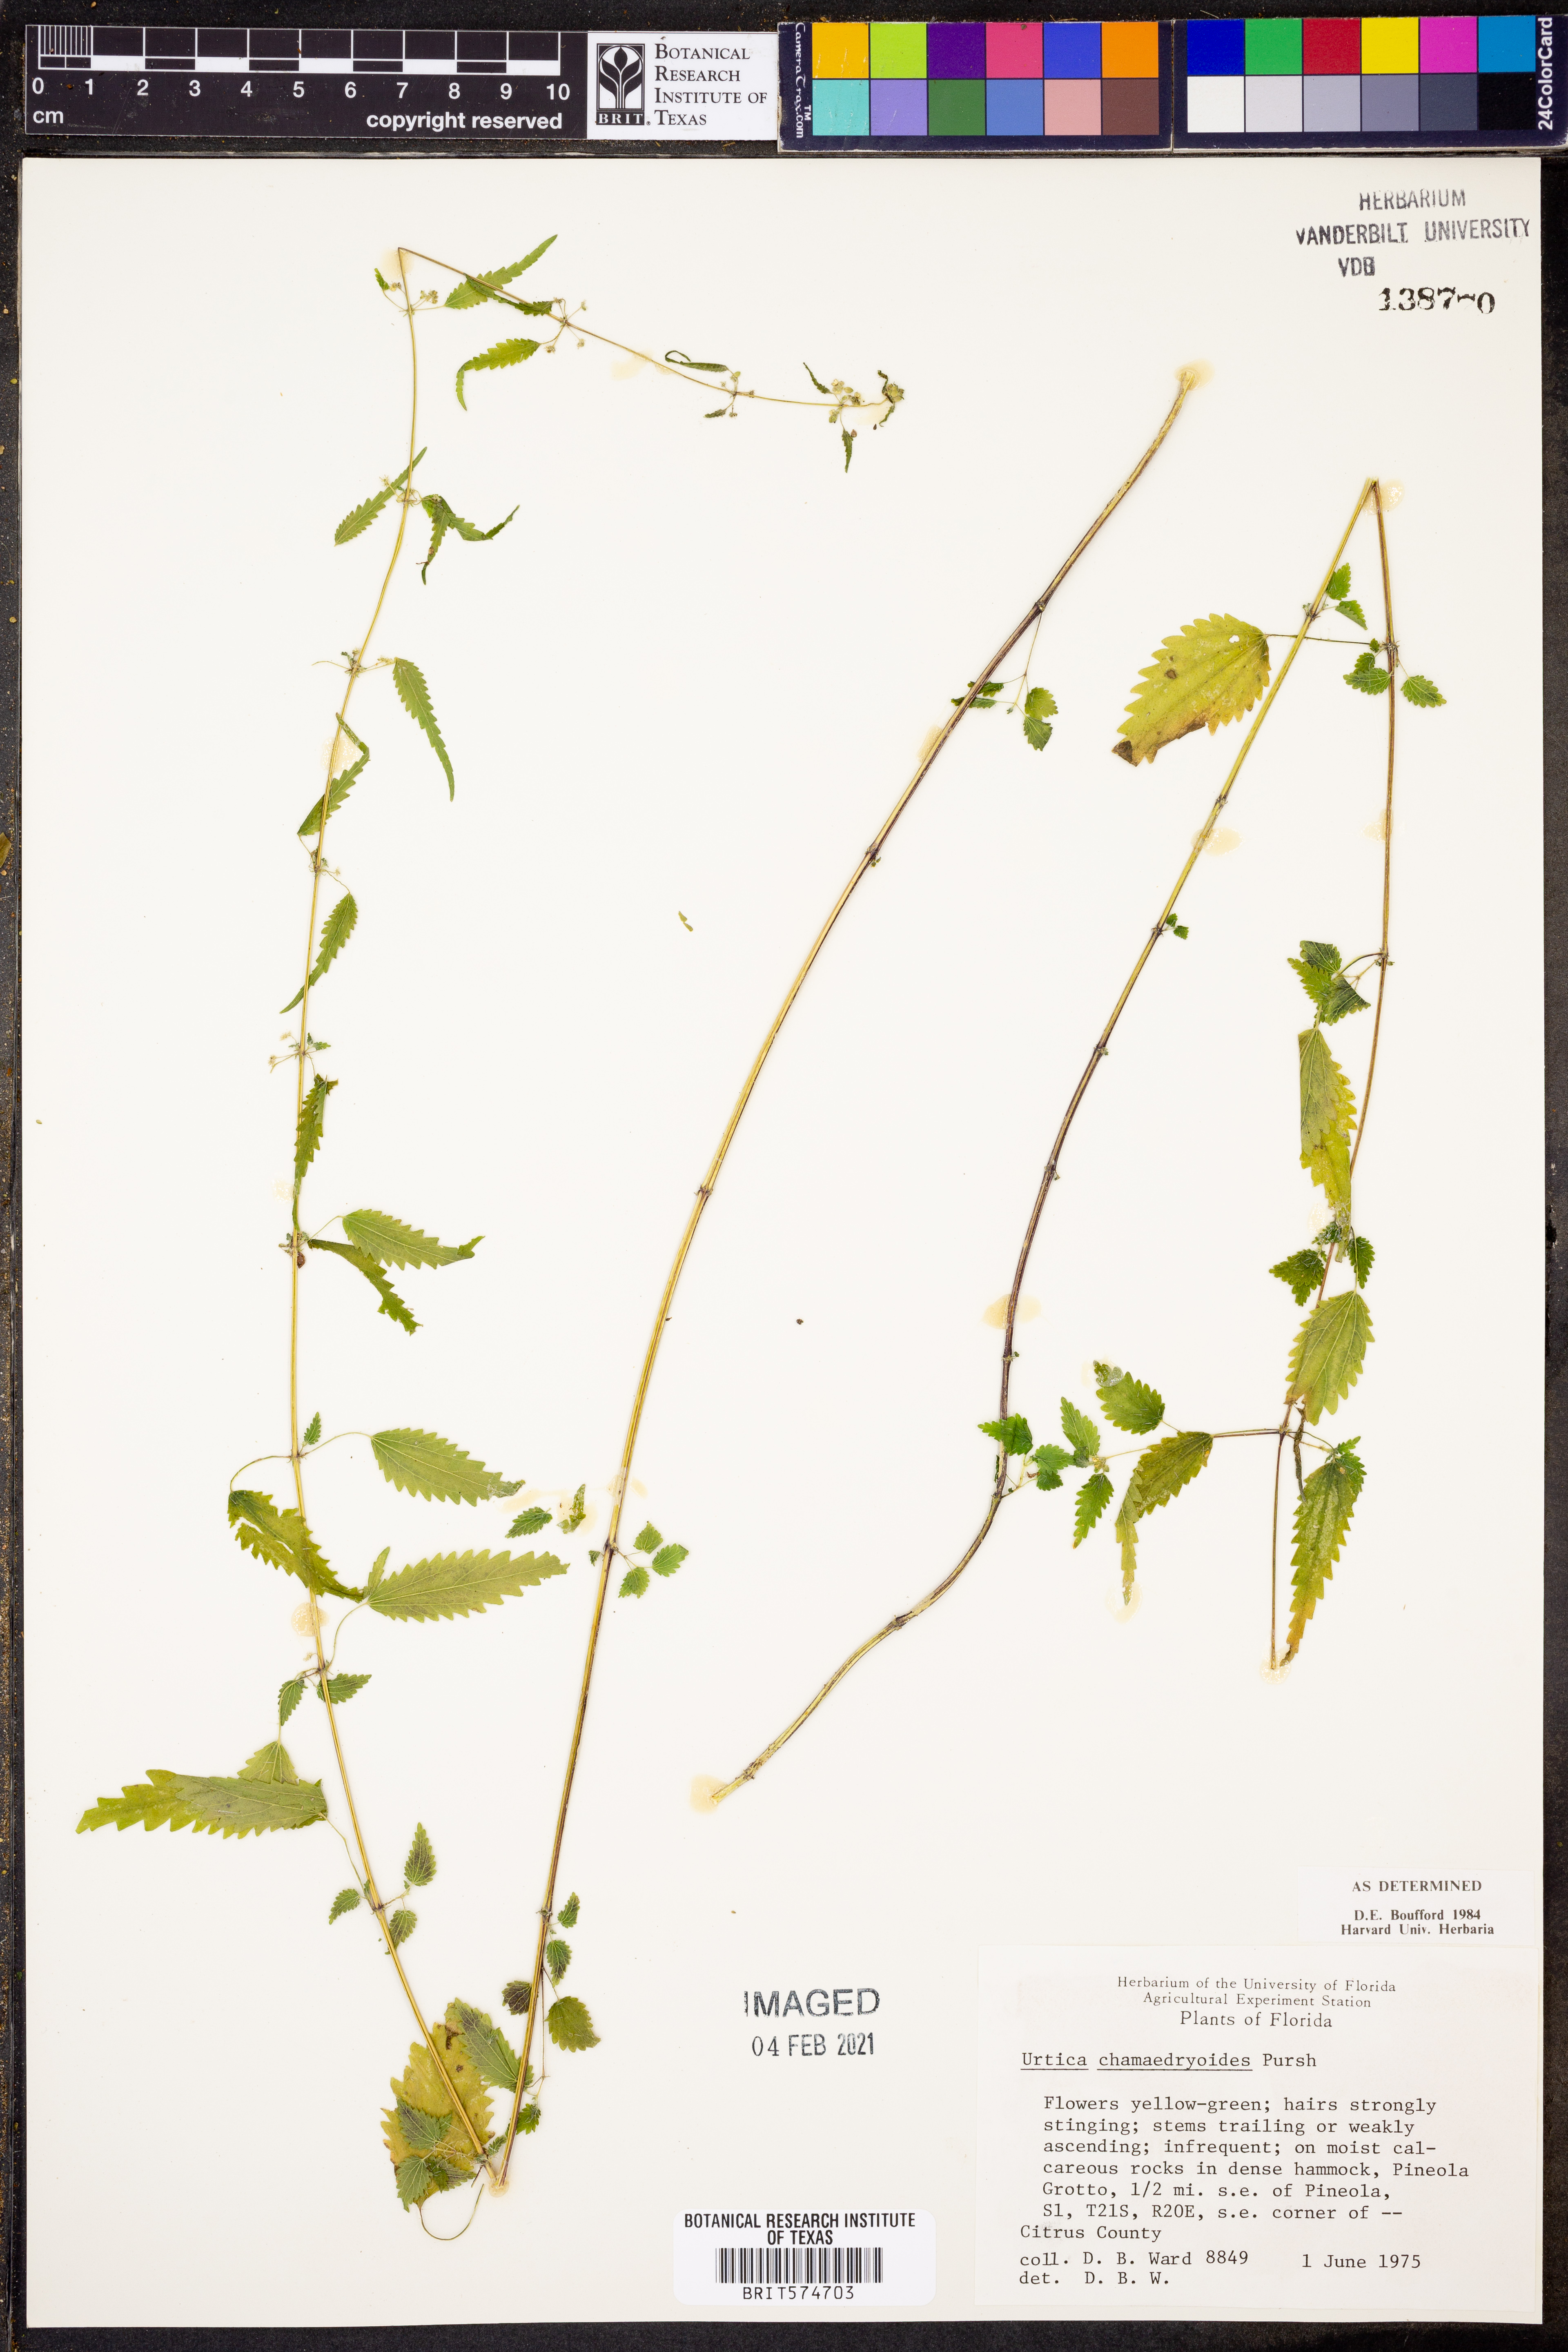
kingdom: Plantae
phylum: Tracheophyta
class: Magnoliopsida
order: Rosales
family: Urticaceae
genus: Urtica
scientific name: Urtica chamaedryoides
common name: Heart-leaf nettle
